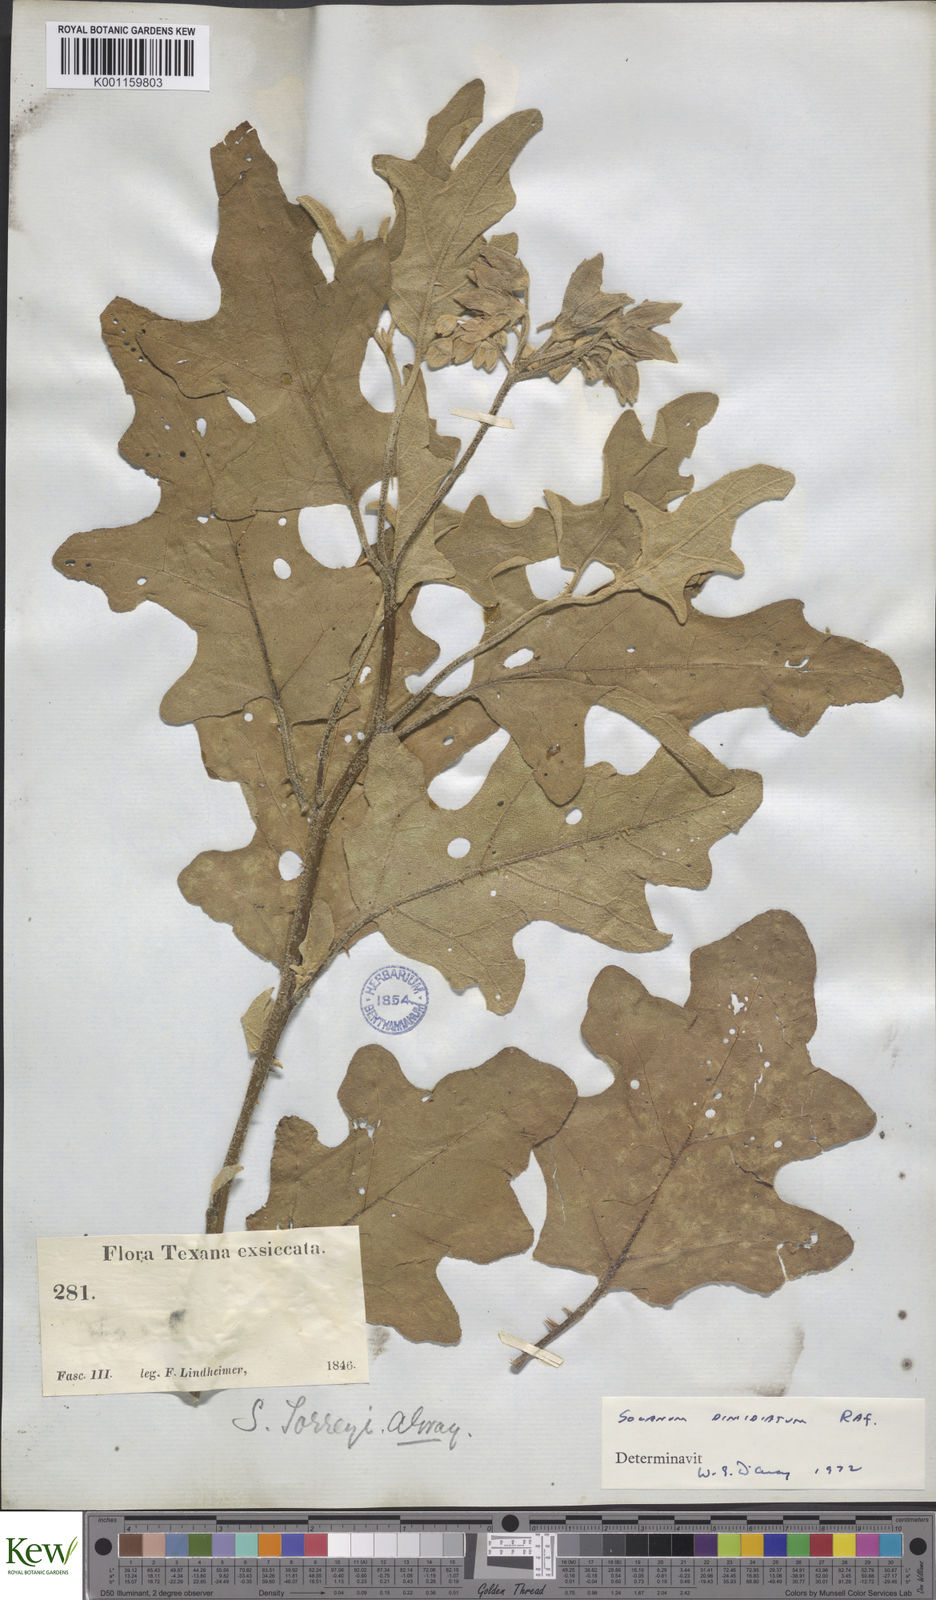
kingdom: Plantae
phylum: Tracheophyta
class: Magnoliopsida
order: Solanales
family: Solanaceae
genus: Solanum
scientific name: Solanum
